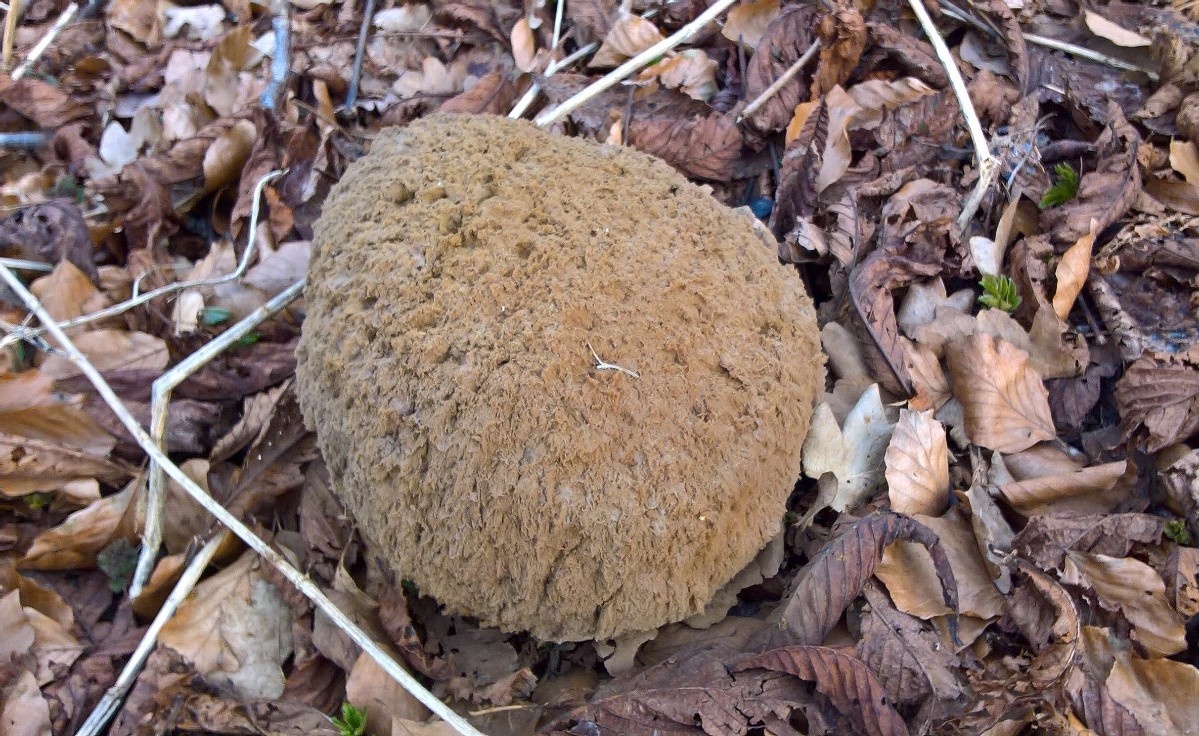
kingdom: Fungi
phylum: Basidiomycota
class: Agaricomycetes
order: Agaricales
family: Lycoperdaceae
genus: Calvatia
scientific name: Calvatia gigantea
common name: kæmpestøvbold
